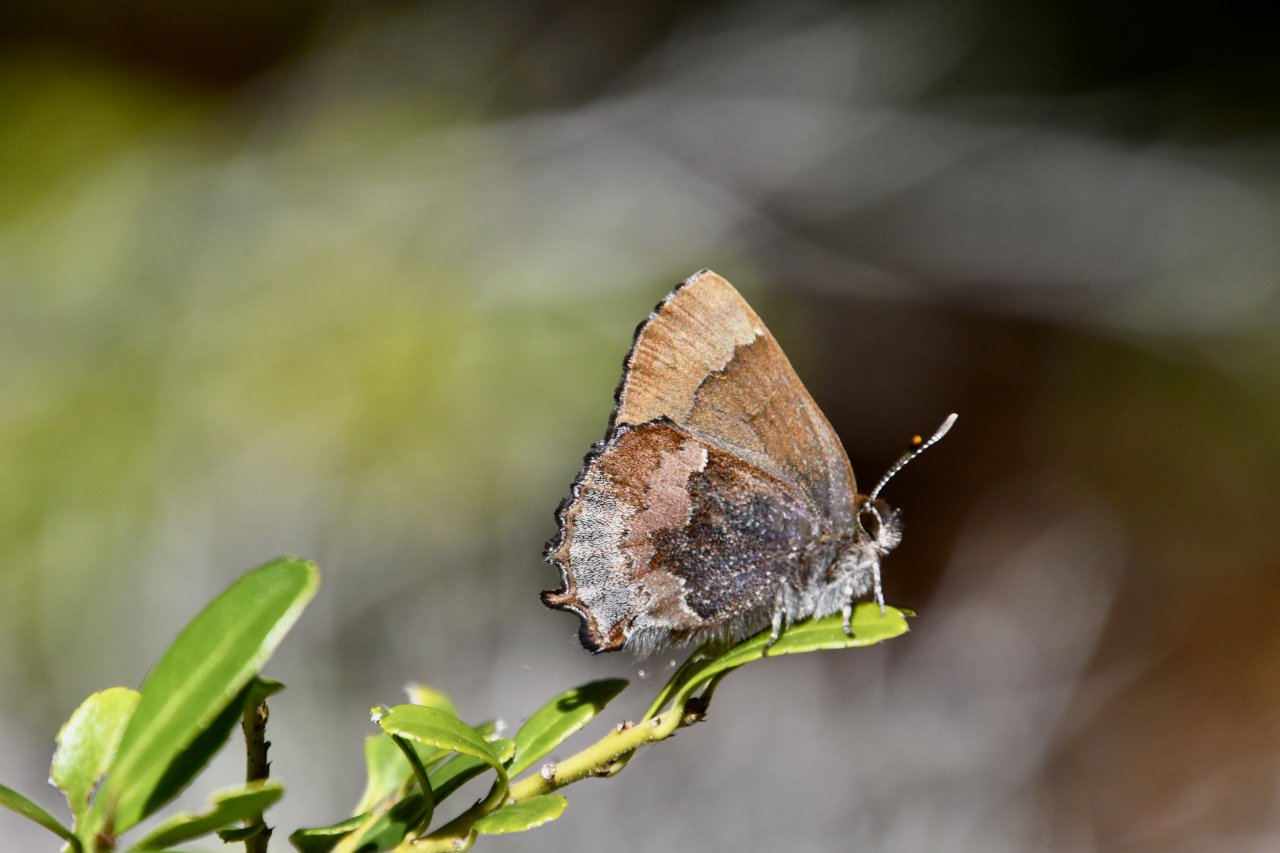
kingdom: Animalia
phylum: Arthropoda
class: Insecta
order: Lepidoptera
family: Lycaenidae
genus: Incisalia
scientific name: Incisalia henrici
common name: Henry's Elfin
